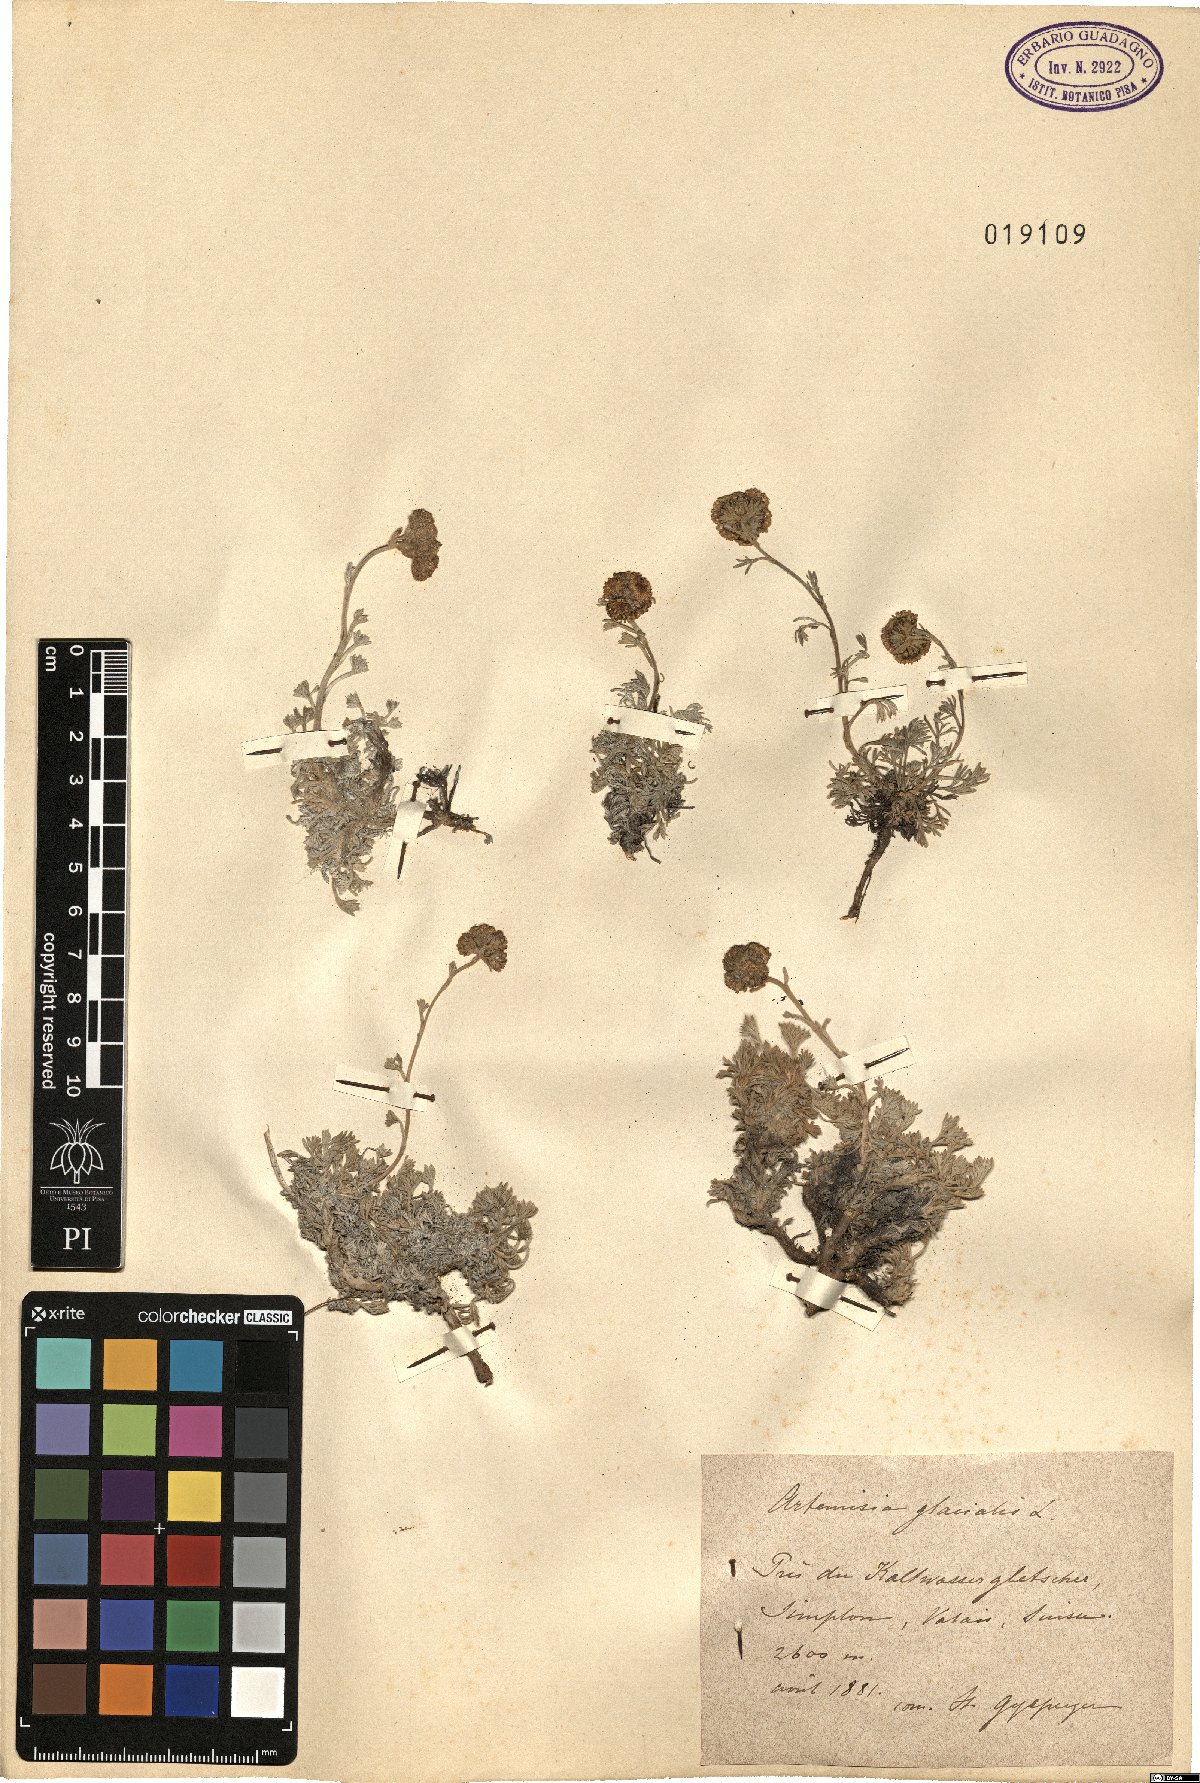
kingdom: Plantae
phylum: Tracheophyta
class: Magnoliopsida
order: Asterales
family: Asteraceae
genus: Artemisia
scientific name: Artemisia glacialis
